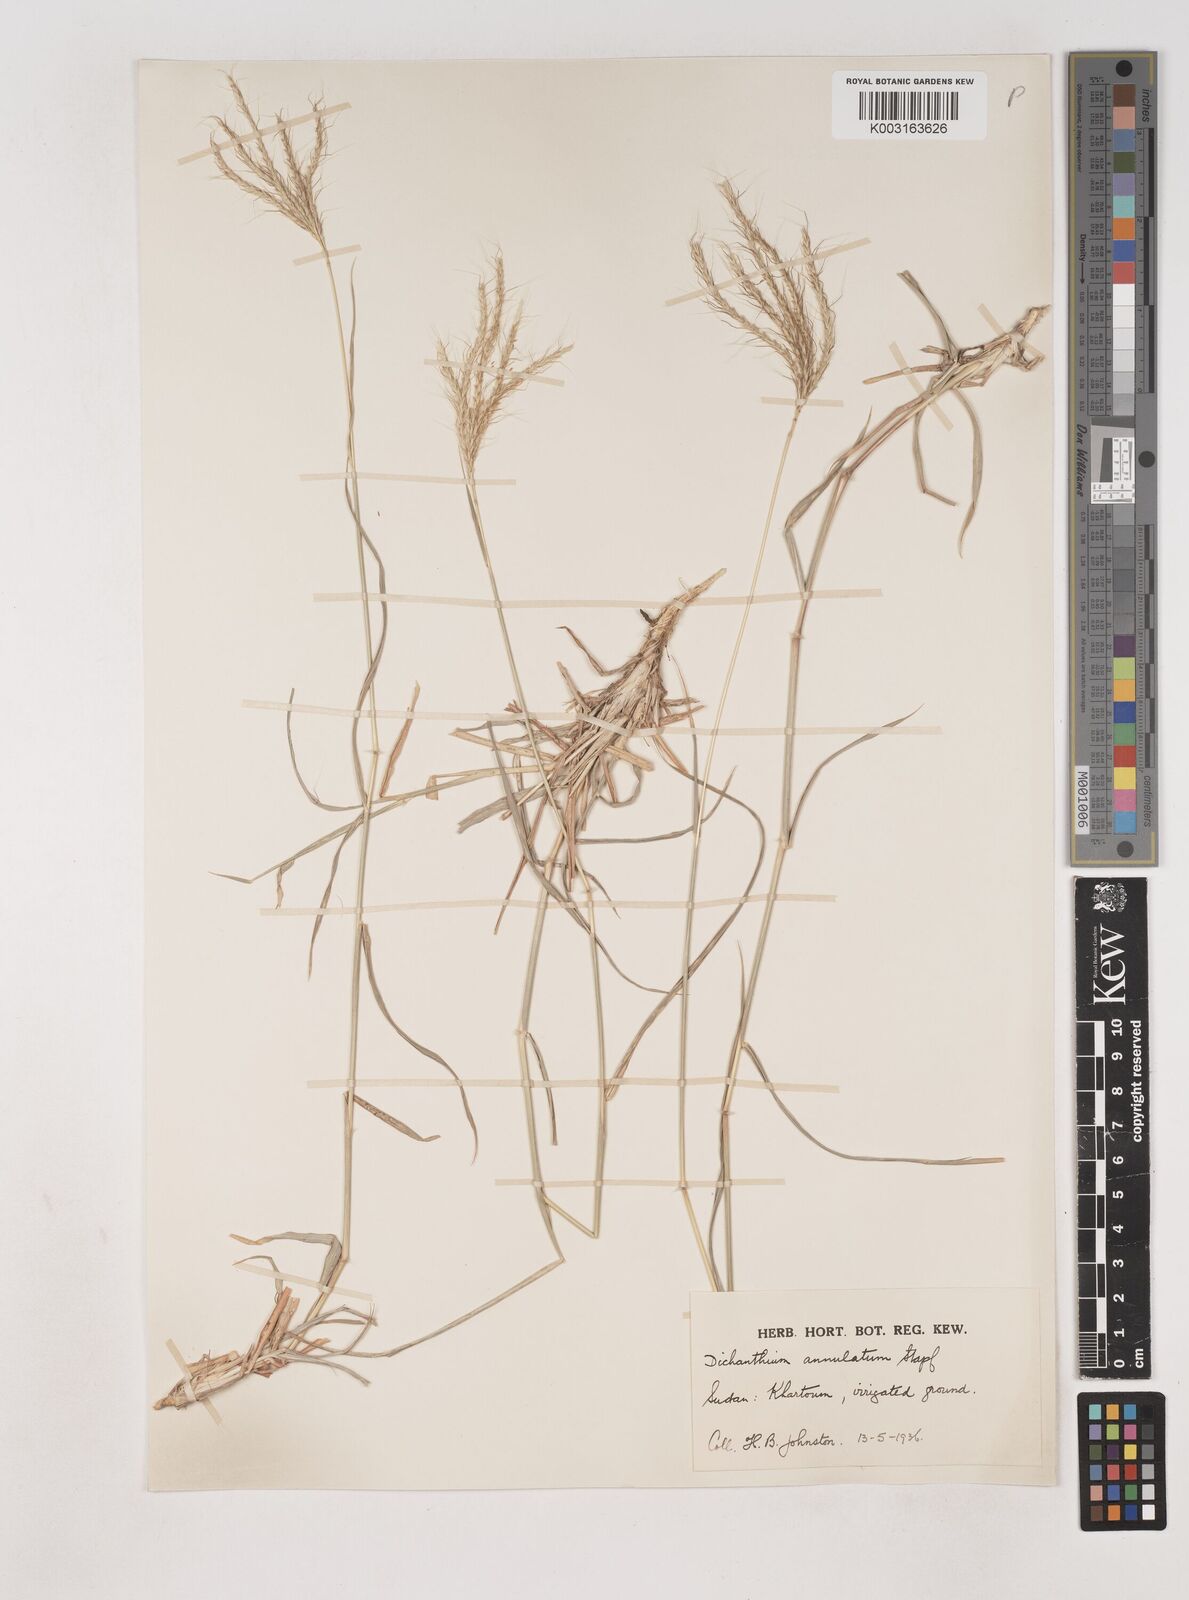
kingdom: Plantae
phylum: Tracheophyta
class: Liliopsida
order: Poales
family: Poaceae
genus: Dichanthium
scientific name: Dichanthium annulatum
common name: Kleberg's bluestem
